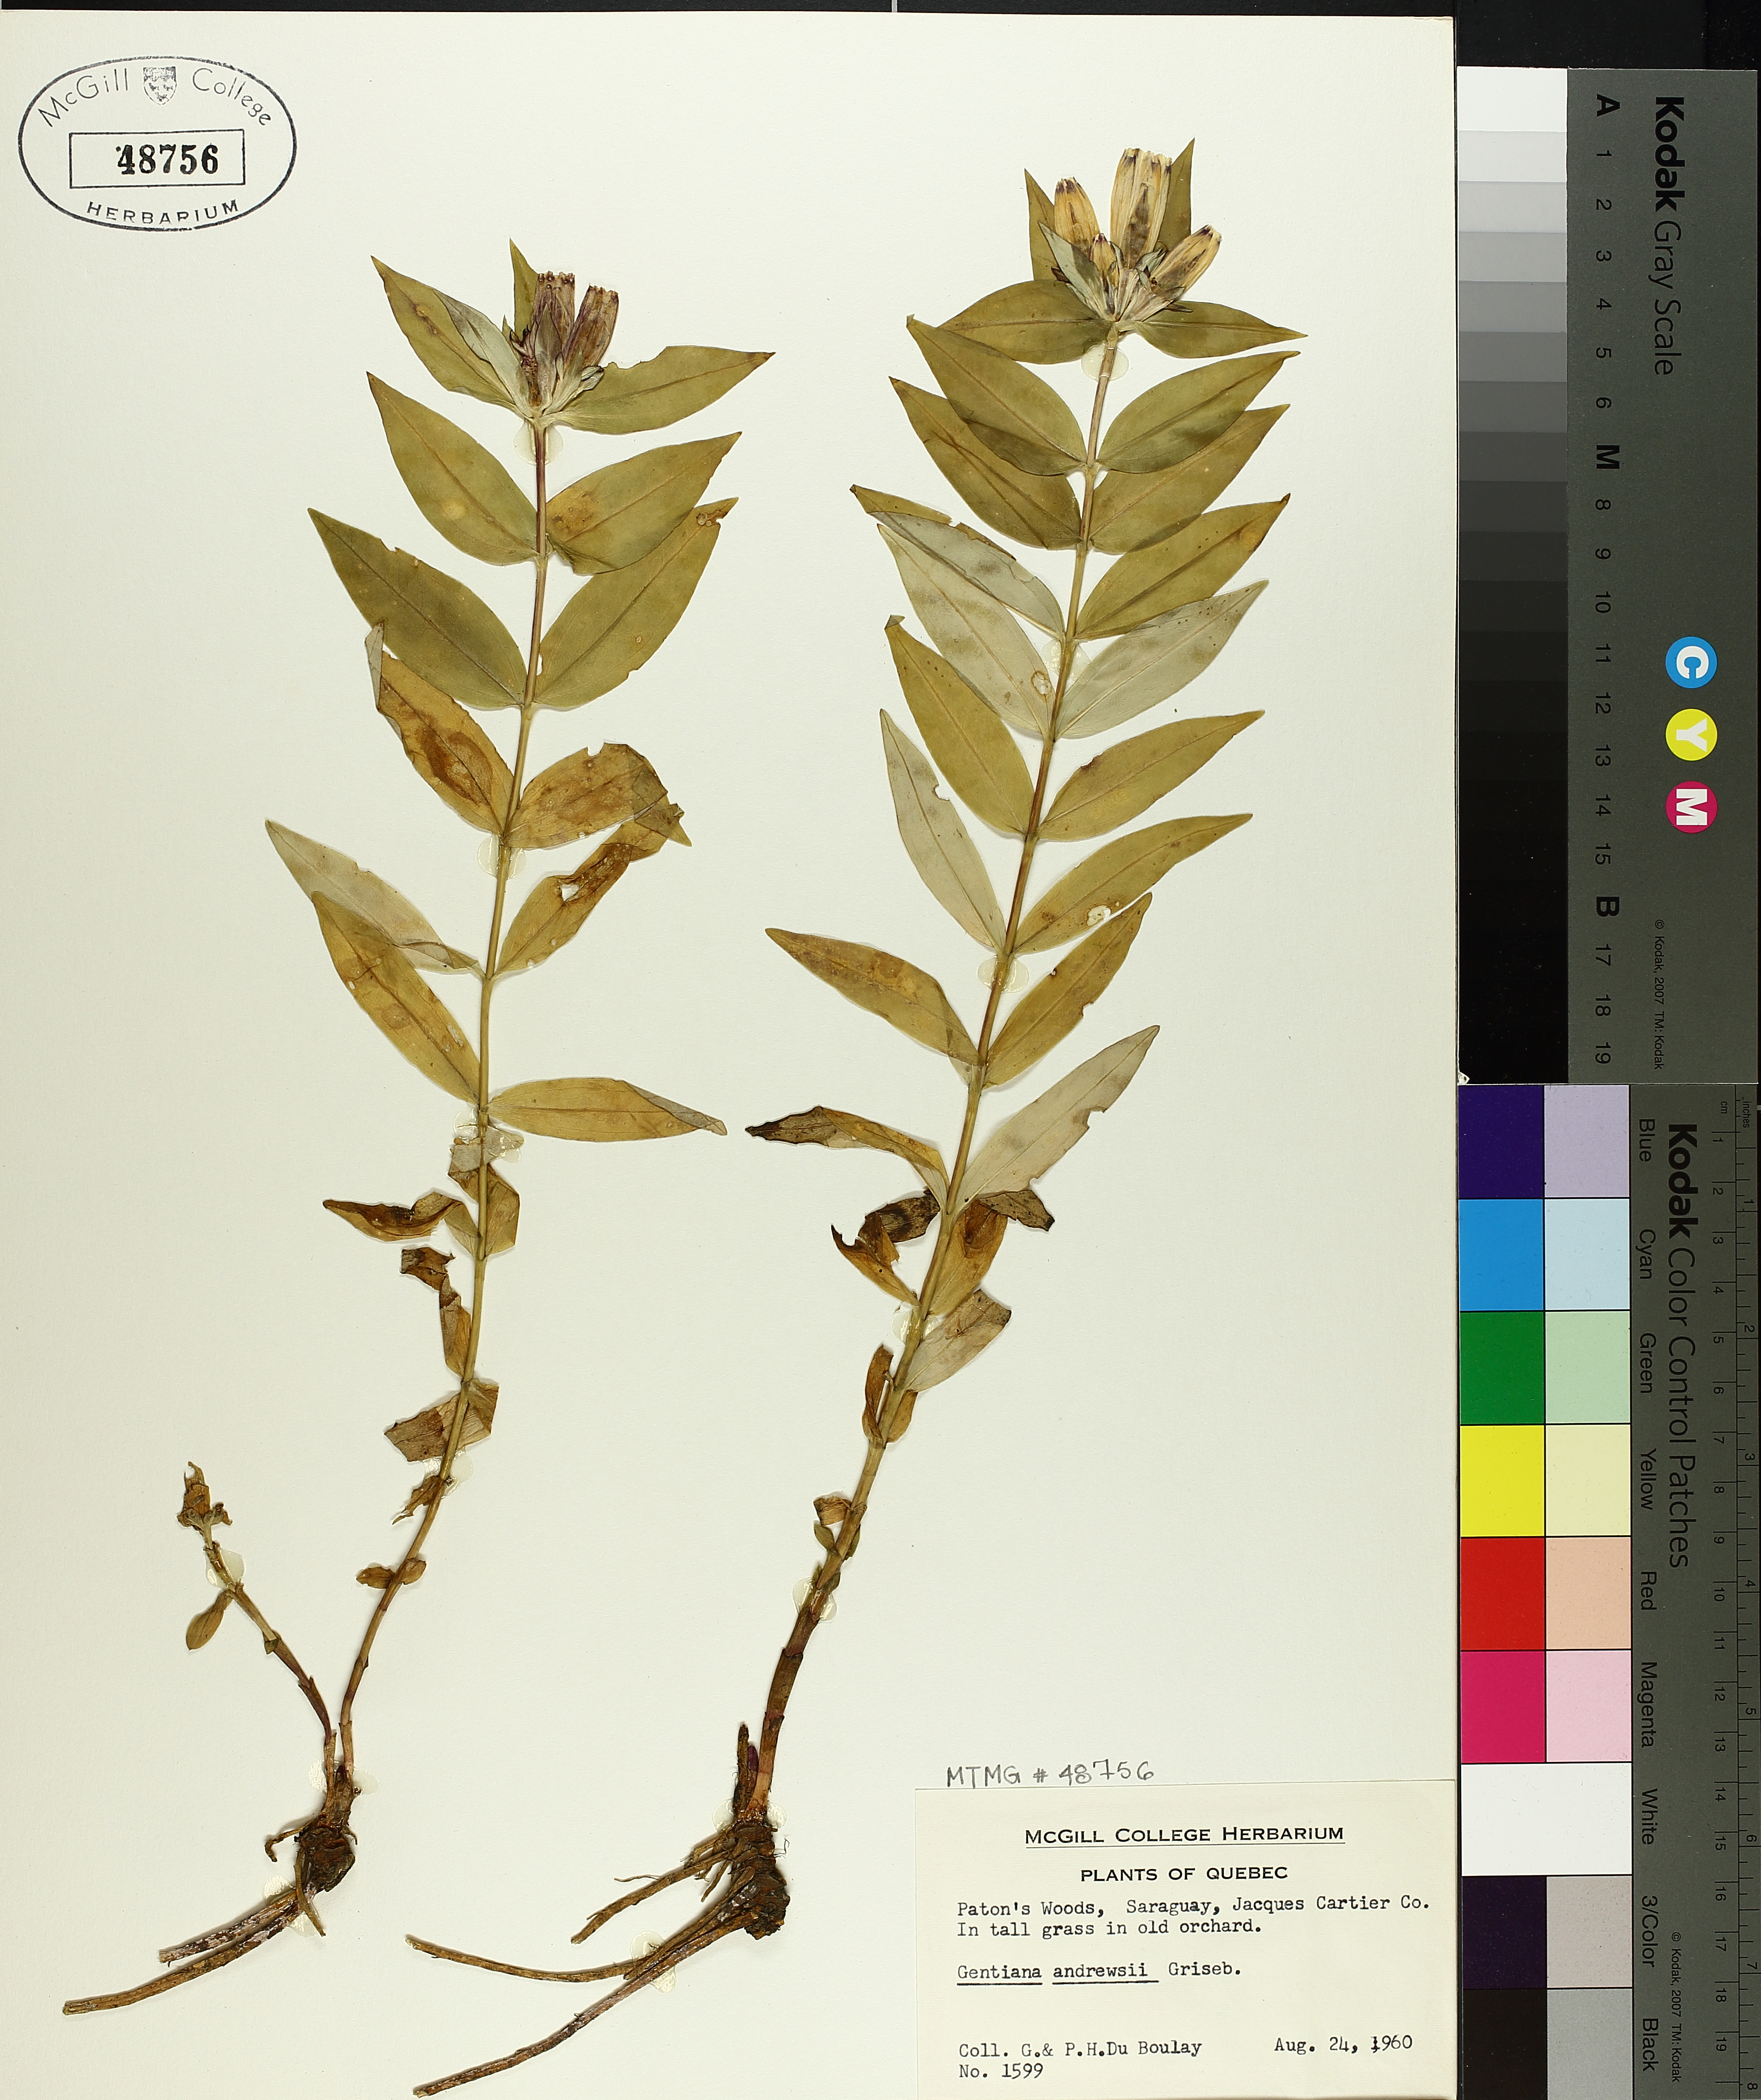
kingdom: Plantae
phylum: Tracheophyta
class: Magnoliopsida
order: Gentianales
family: Gentianaceae
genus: Gentiana
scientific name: Gentiana andrewsii
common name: Bottle gentian
